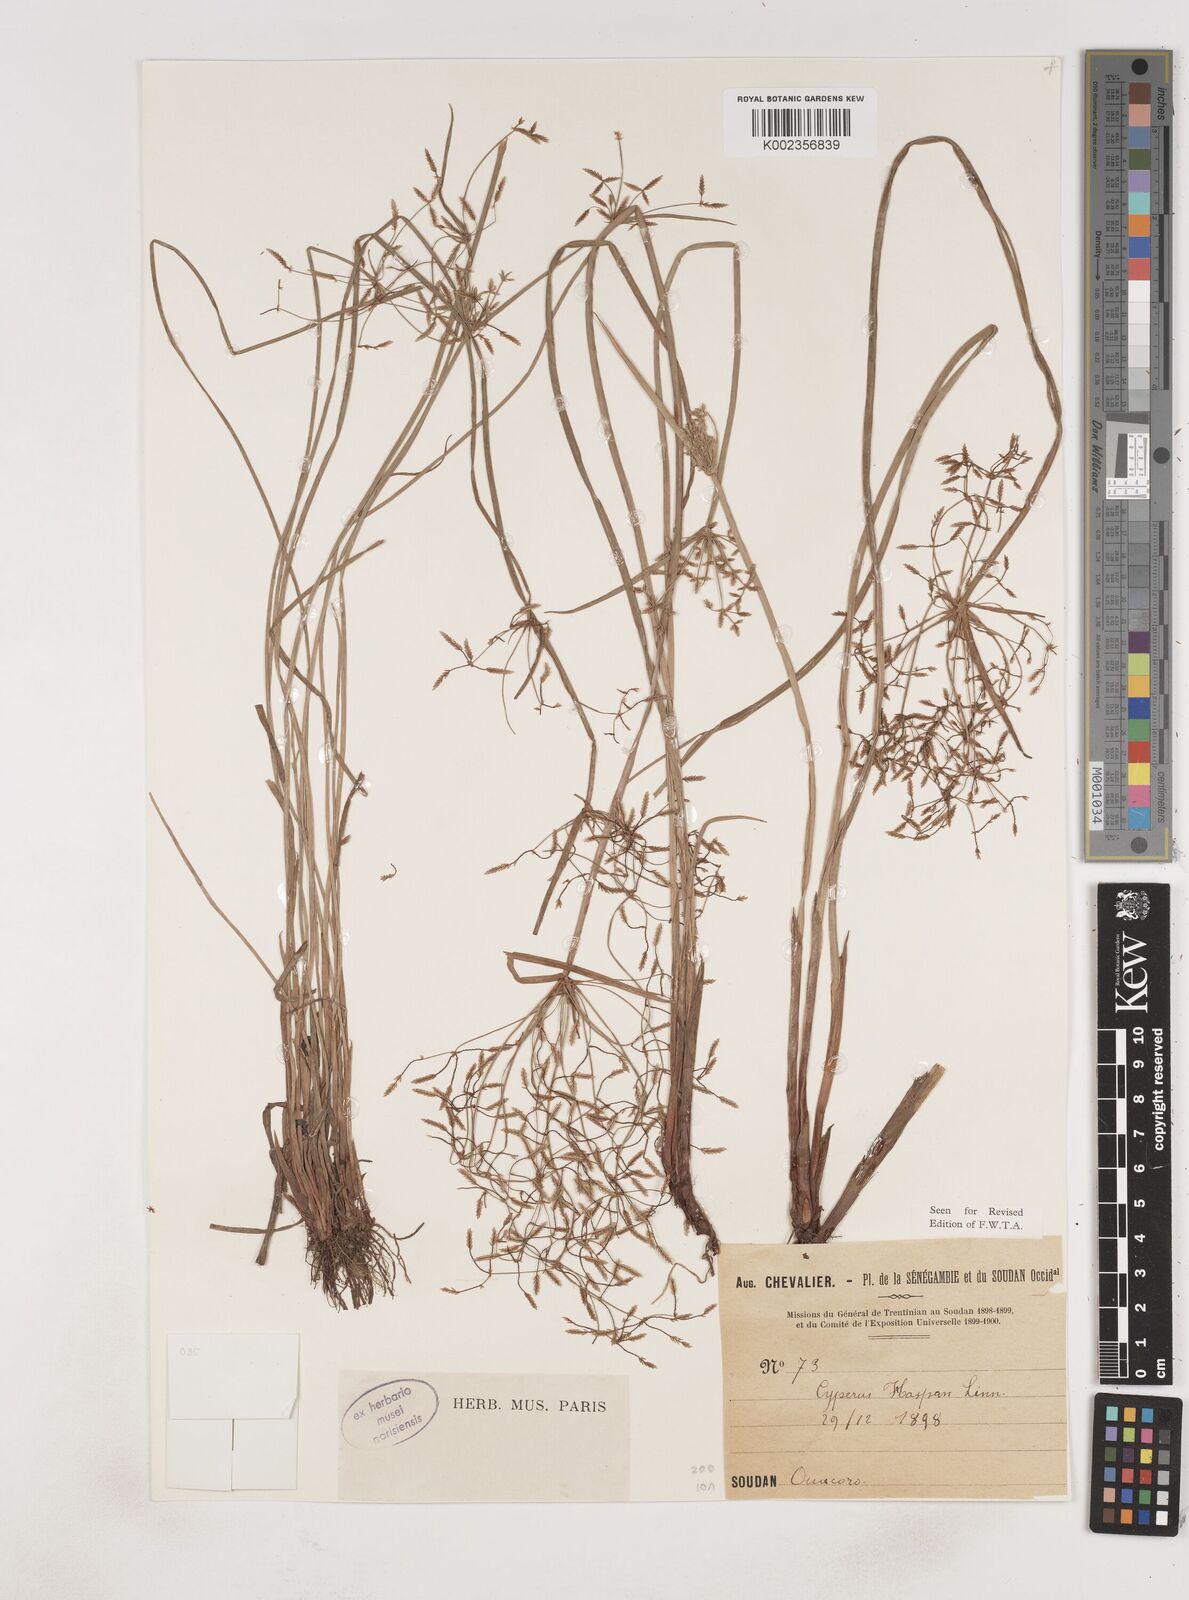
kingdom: Plantae
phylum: Tracheophyta
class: Liliopsida
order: Poales
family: Cyperaceae
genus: Cyperus
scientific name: Cyperus haspan
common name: Haspan flatsedge
